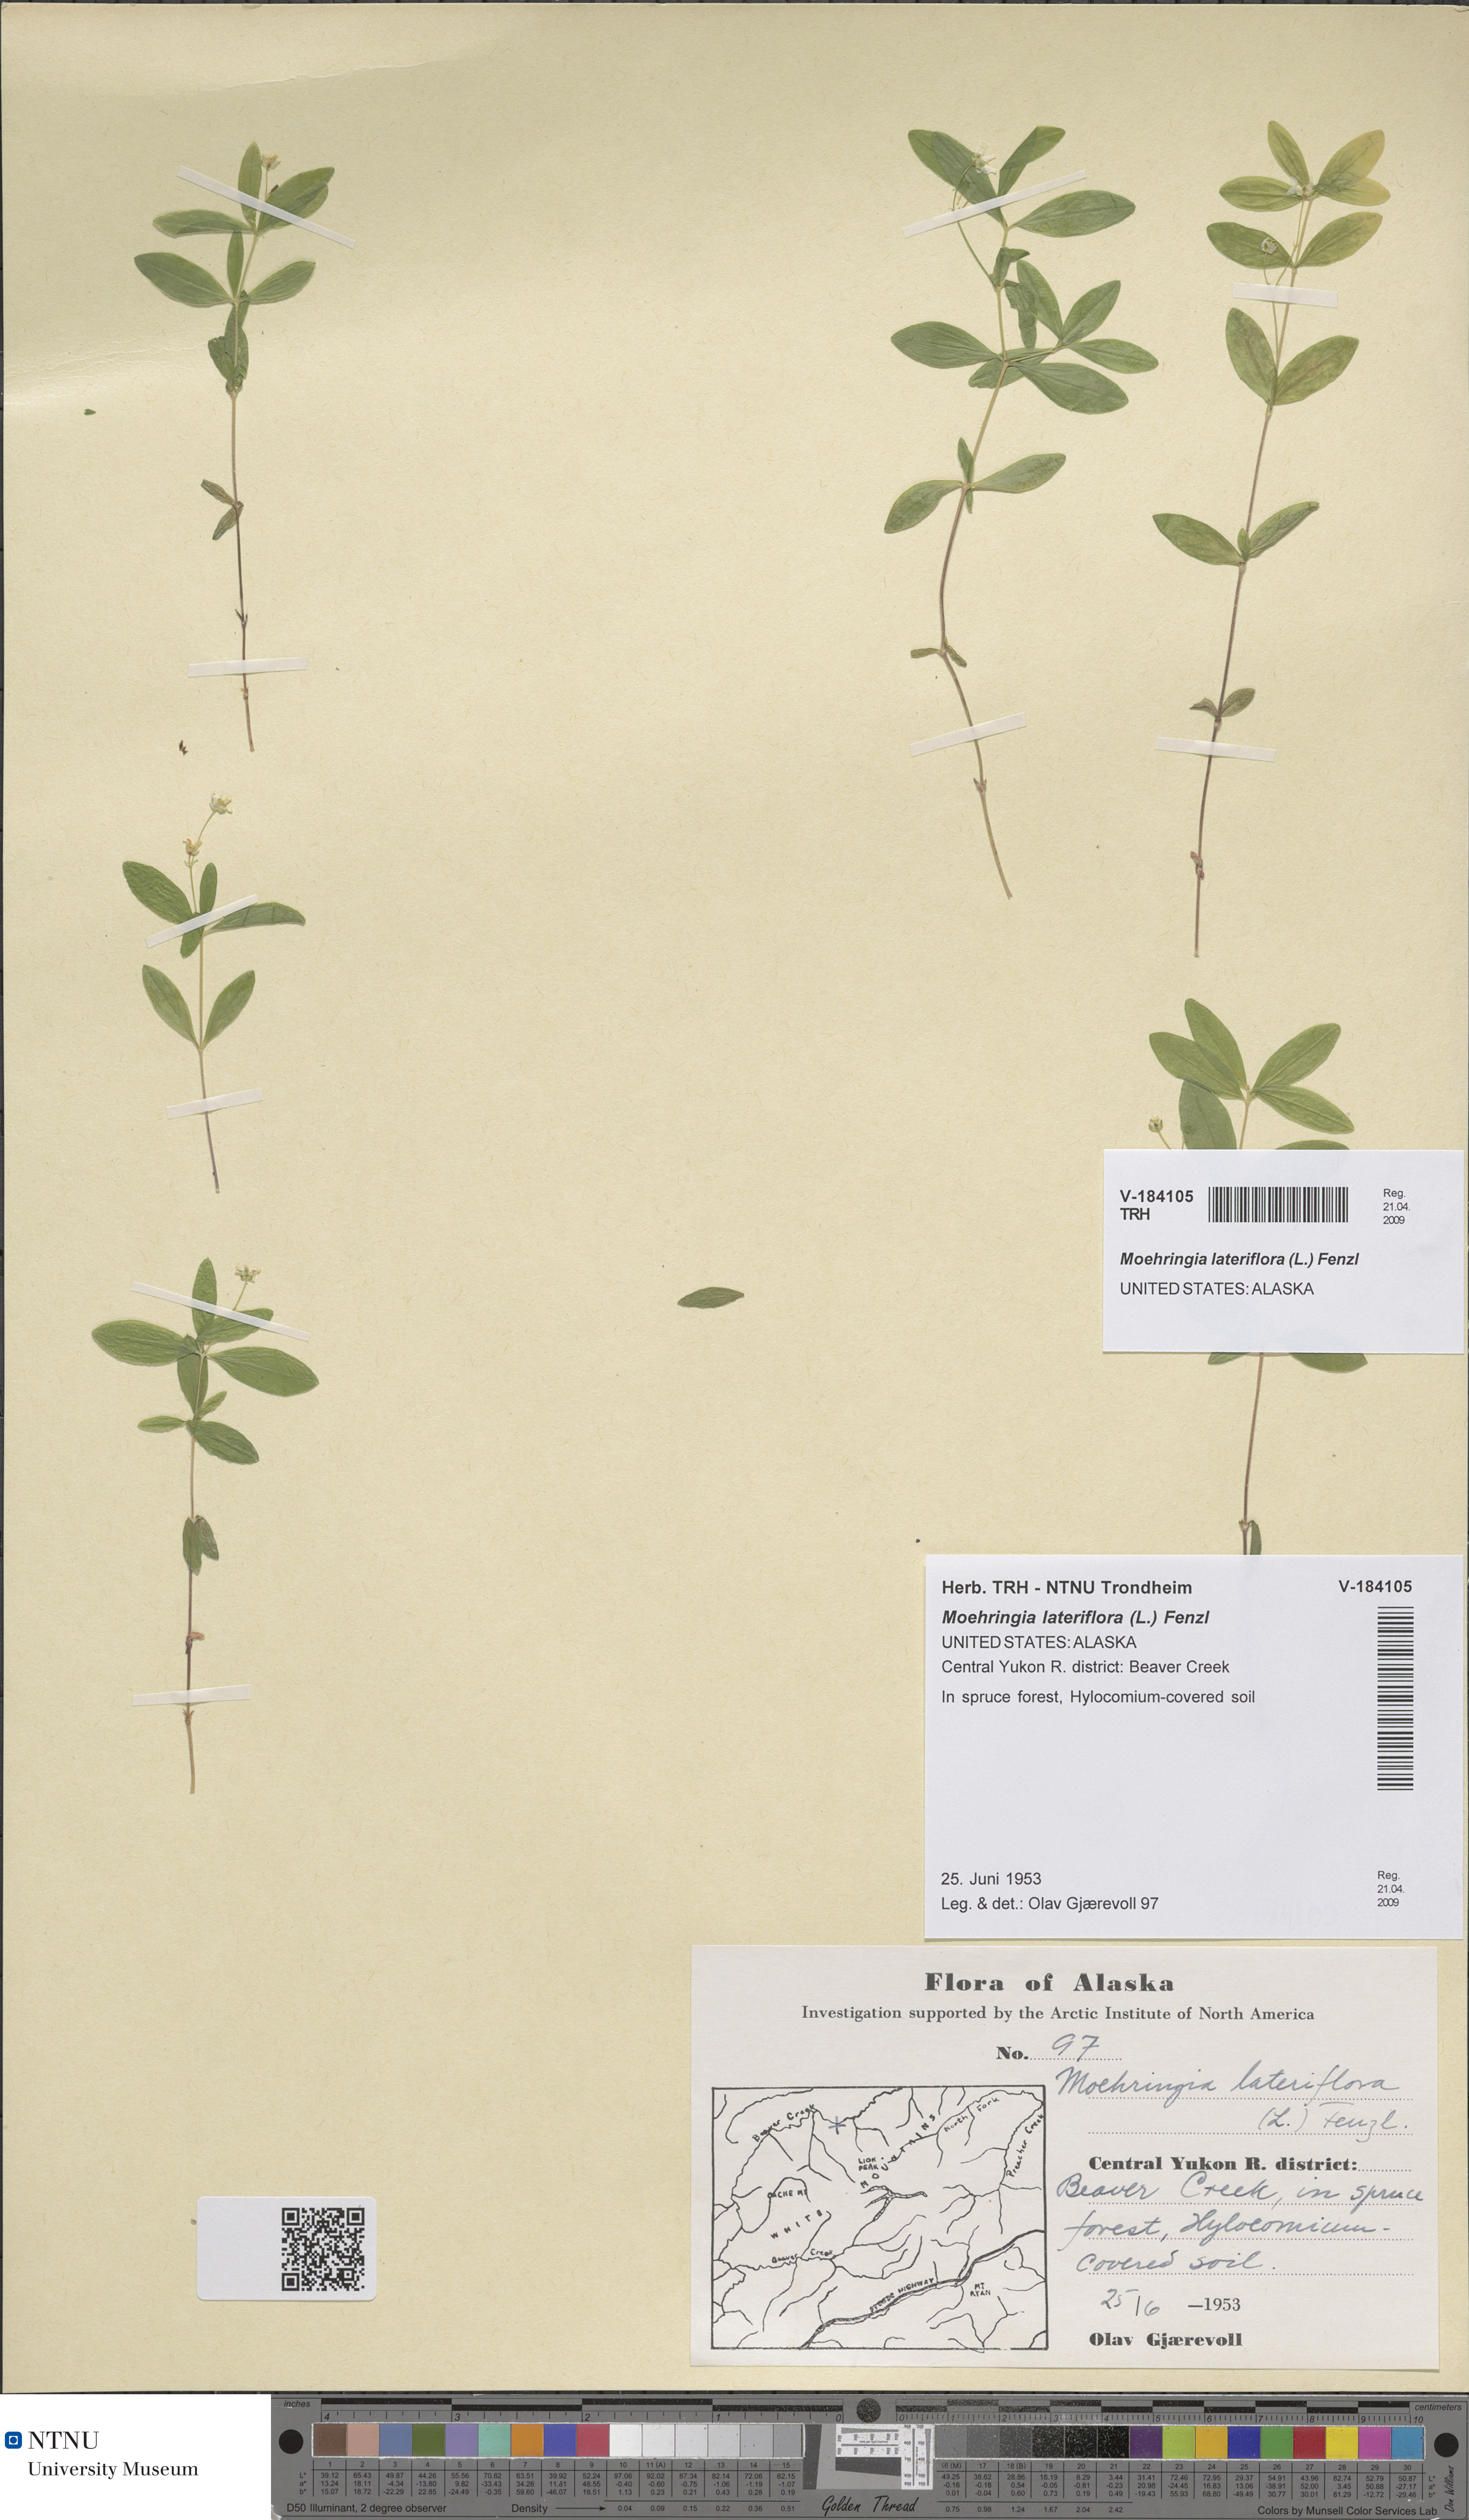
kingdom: Plantae
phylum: Tracheophyta
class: Magnoliopsida
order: Caryophyllales
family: Caryophyllaceae
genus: Moehringia
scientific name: Moehringia lateriflora
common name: Blunt-leaved sandwort
